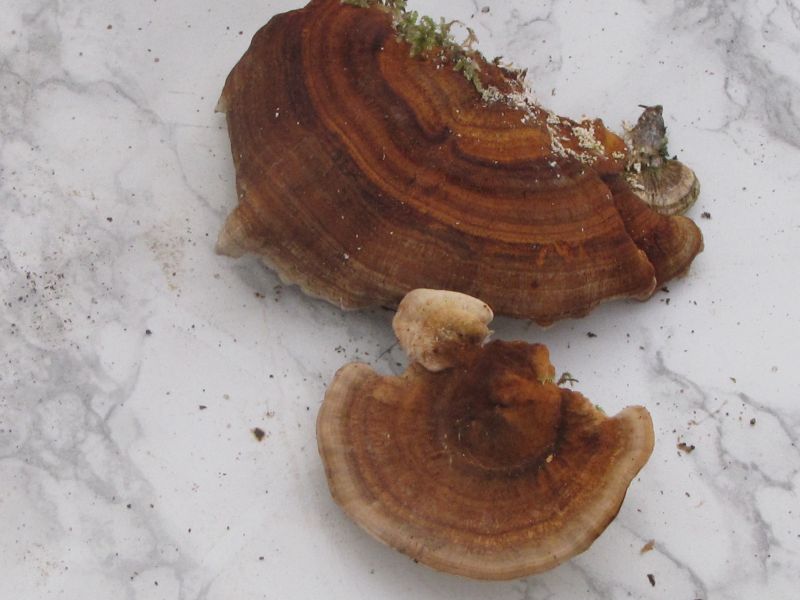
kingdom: Fungi
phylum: Basidiomycota
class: Agaricomycetes
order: Polyporales
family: Polyporaceae
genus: Trametes
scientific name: Trametes ochracea
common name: bæltet læderporesvamp
